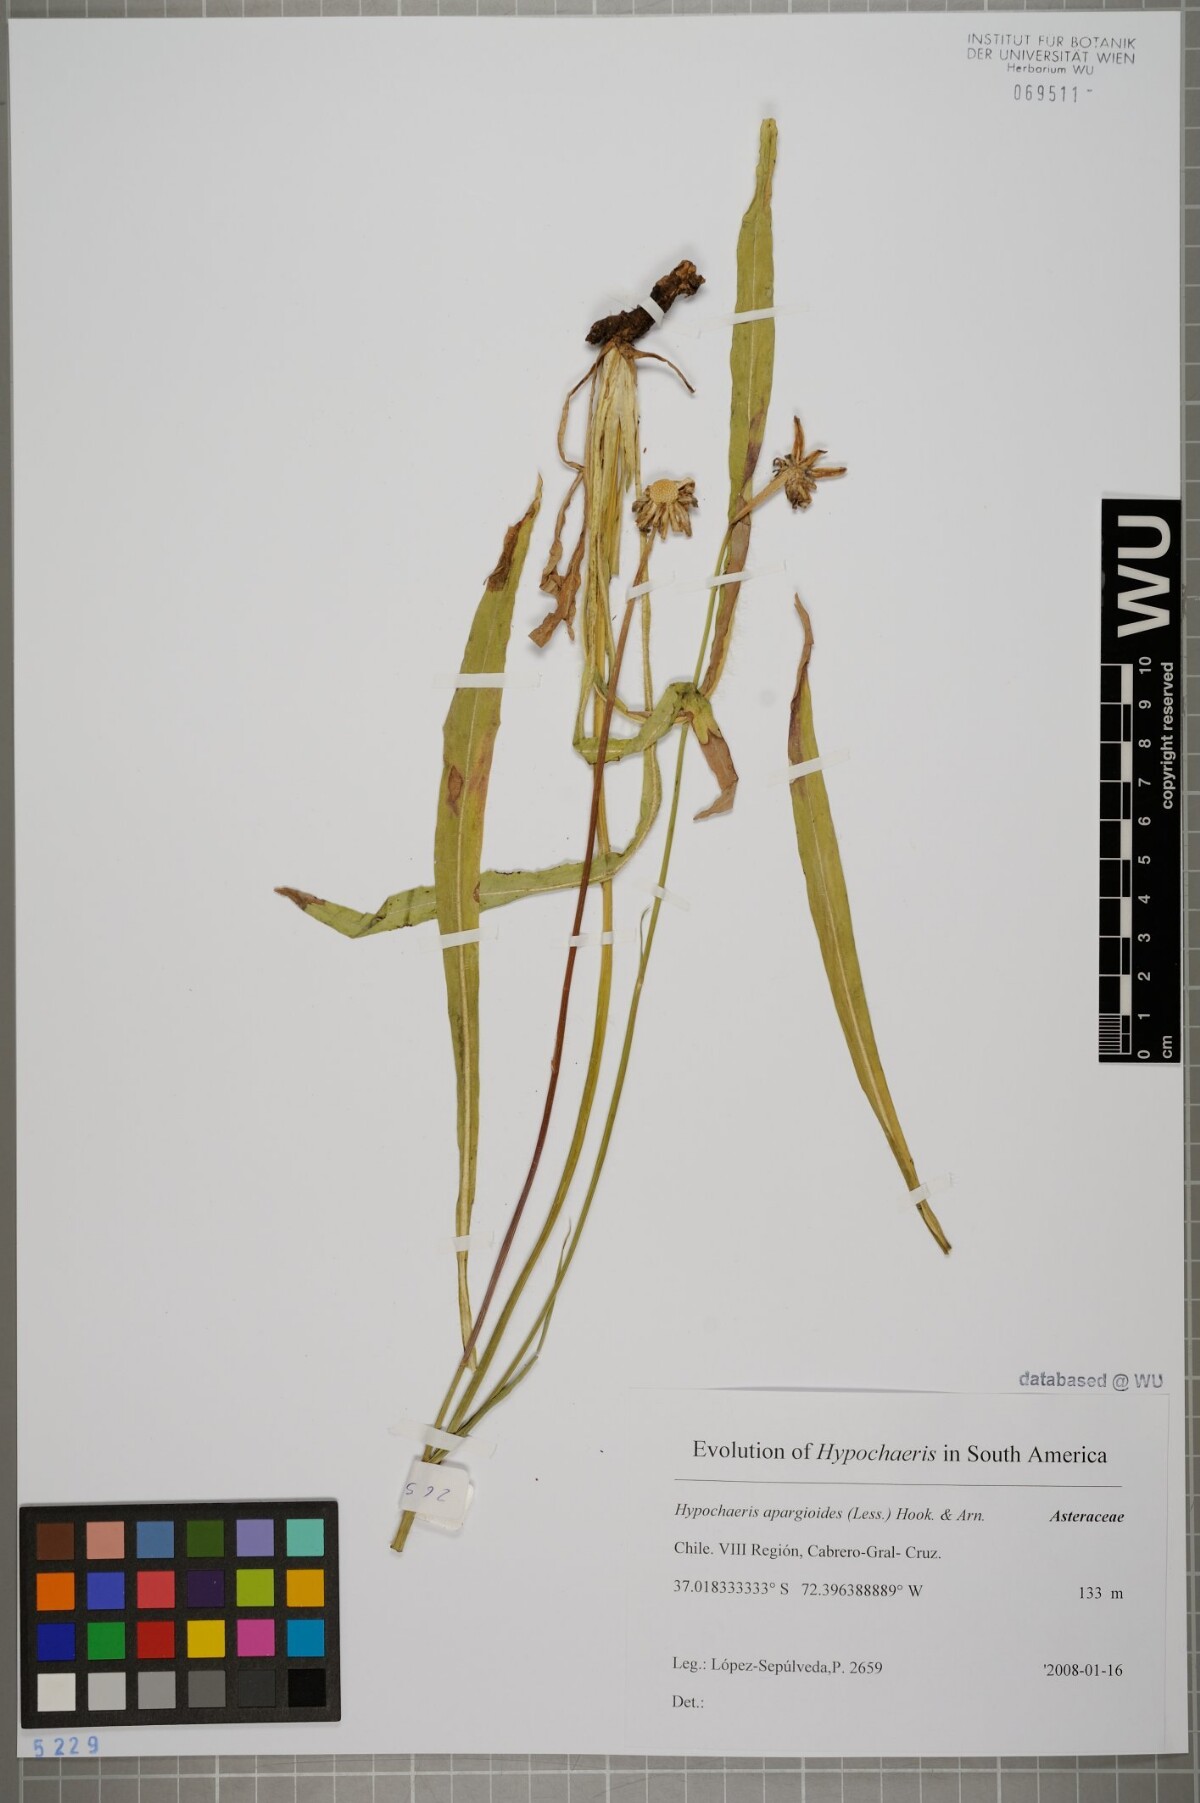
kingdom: Plantae
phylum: Tracheophyta
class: Magnoliopsida
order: Asterales
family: Asteraceae
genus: Hypochaeris
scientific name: Hypochaeris apargioides
